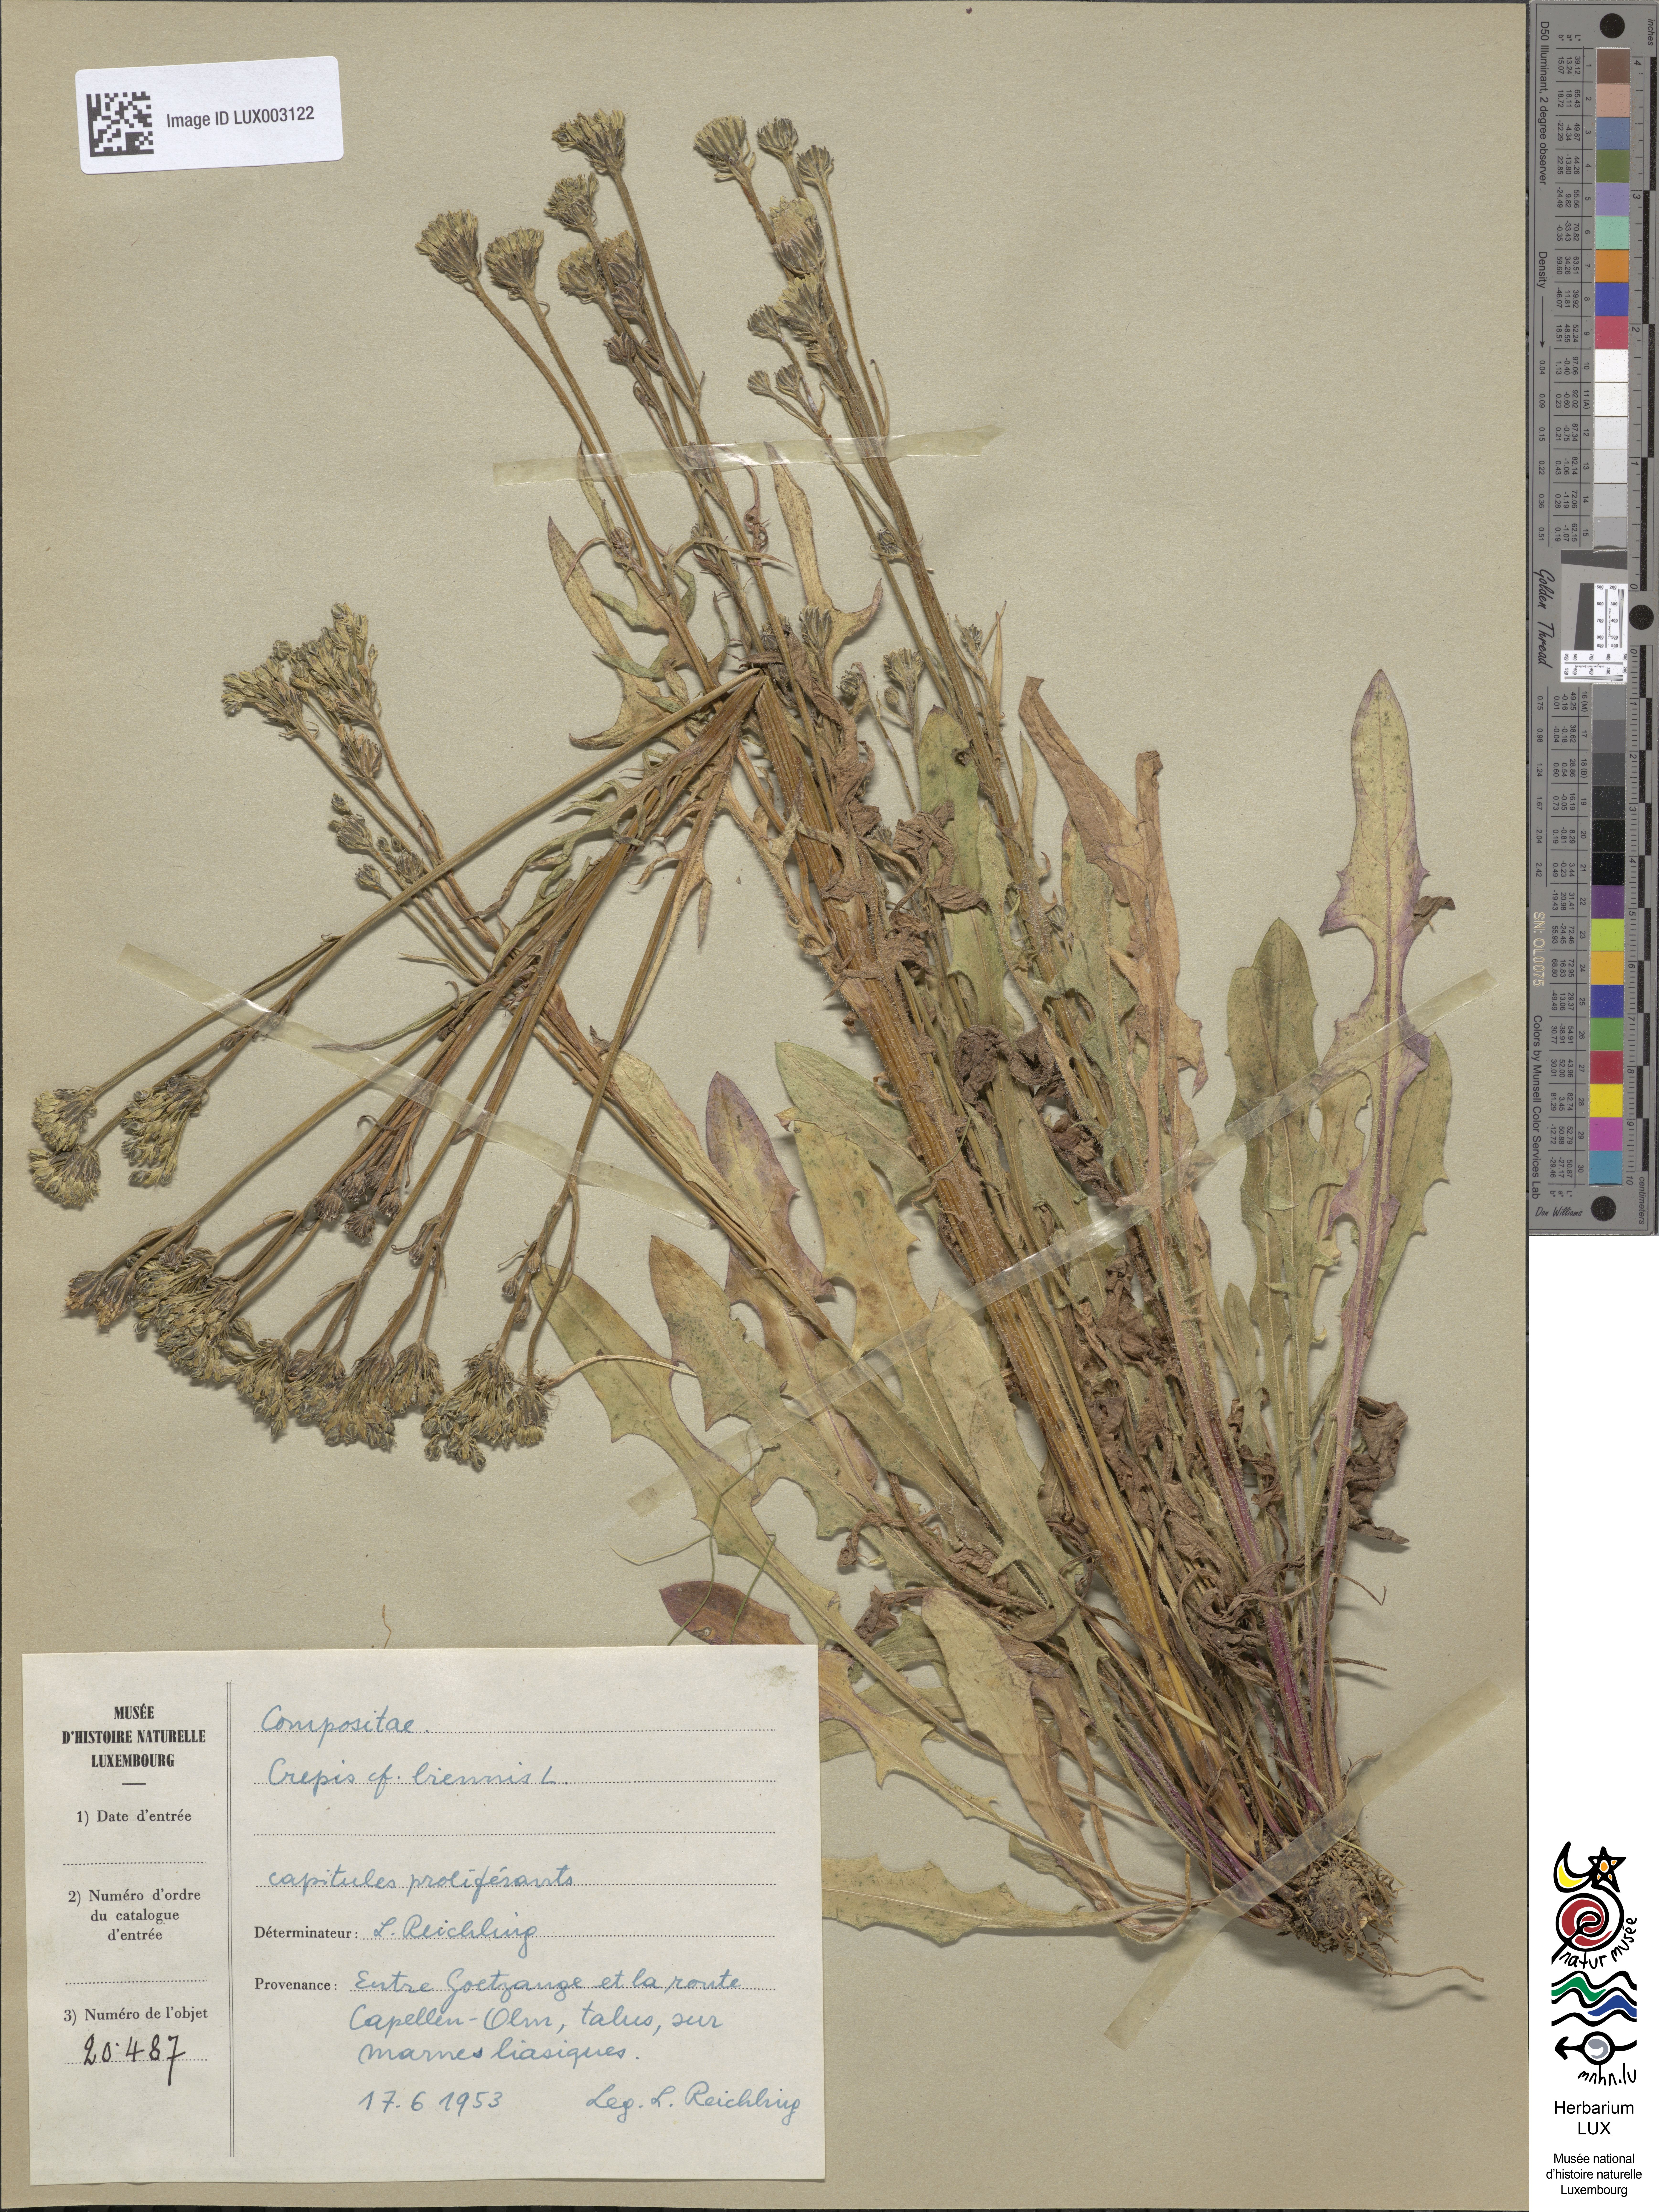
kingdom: Plantae
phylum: Tracheophyta
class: Magnoliopsida
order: Asterales
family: Asteraceae
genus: Crepis
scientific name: Crepis biennis
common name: Rough hawk's-beard
